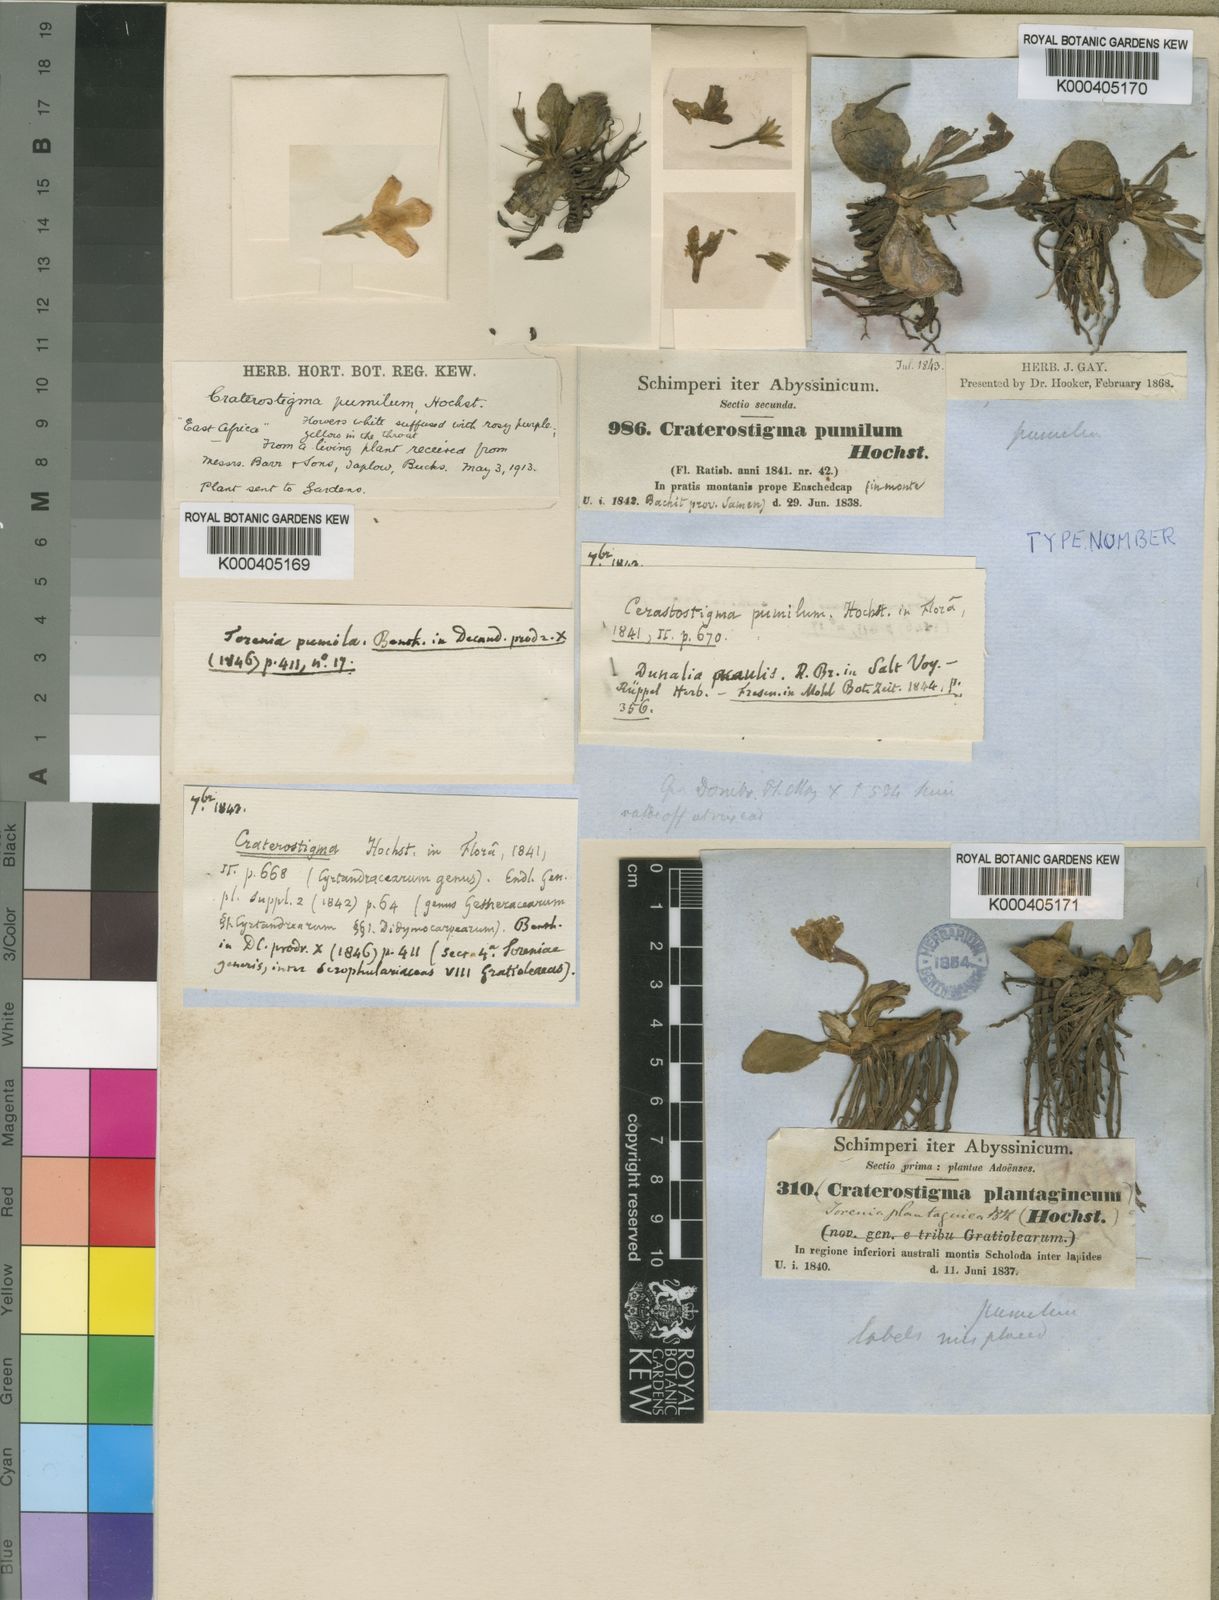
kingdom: Plantae
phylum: Tracheophyta
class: Magnoliopsida
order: Lamiales
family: Linderniaceae
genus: Craterostigma
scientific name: Craterostigma pumilum
